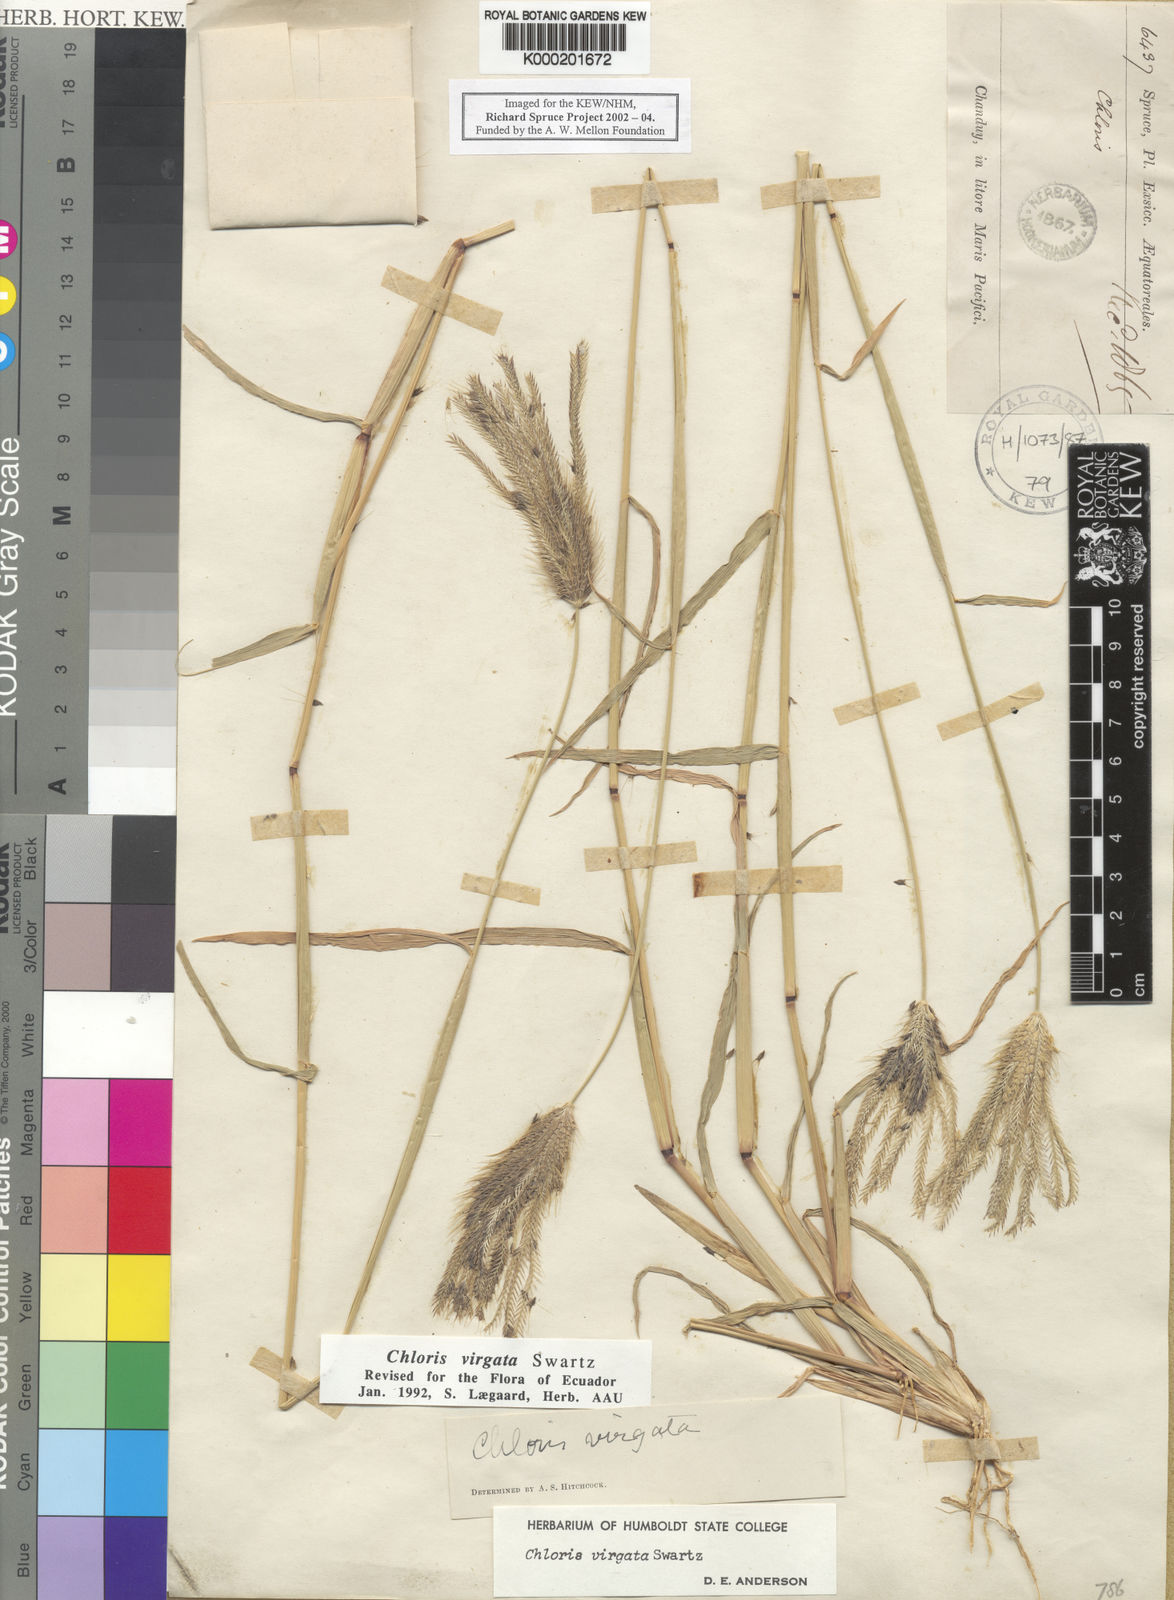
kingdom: Plantae
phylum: Tracheophyta
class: Liliopsida
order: Poales
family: Poaceae
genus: Chloris
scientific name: Chloris virgata
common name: Feathery rhodes-grass
